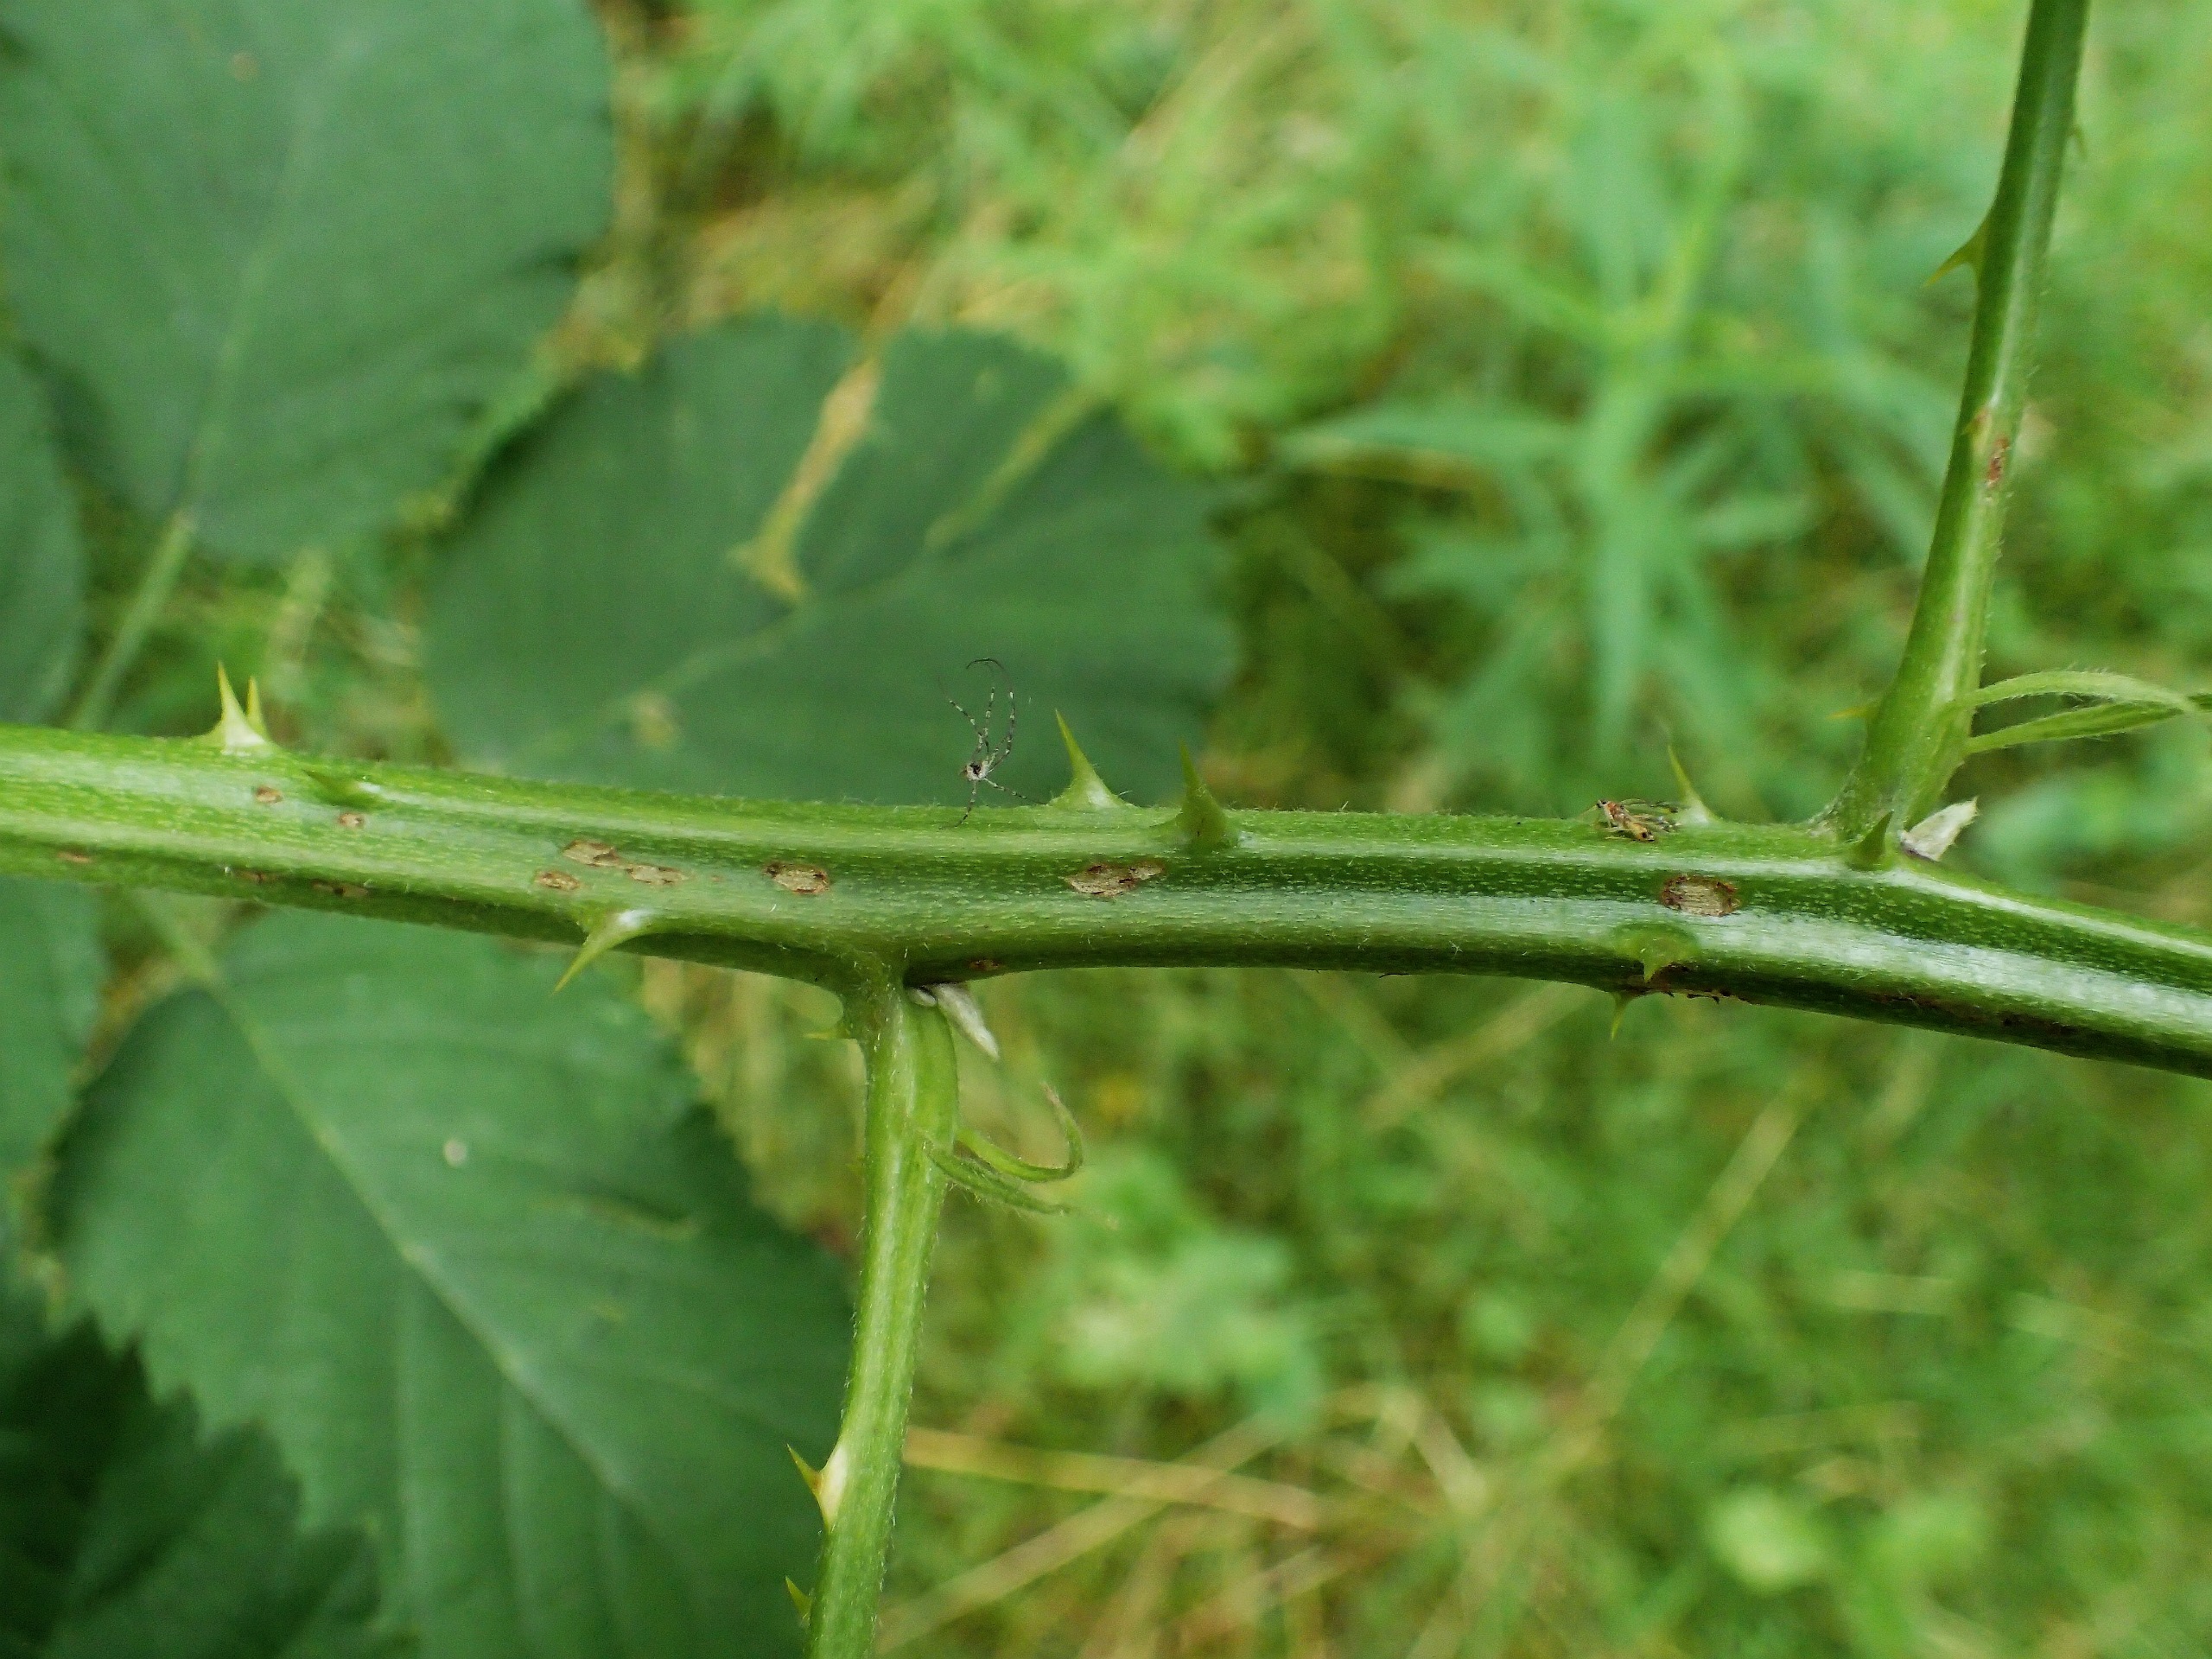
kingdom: Plantae
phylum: Tracheophyta
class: Magnoliopsida
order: Rosales
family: Rosaceae
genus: Rubus
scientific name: Rubus armeniacus
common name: Armensk brombær
